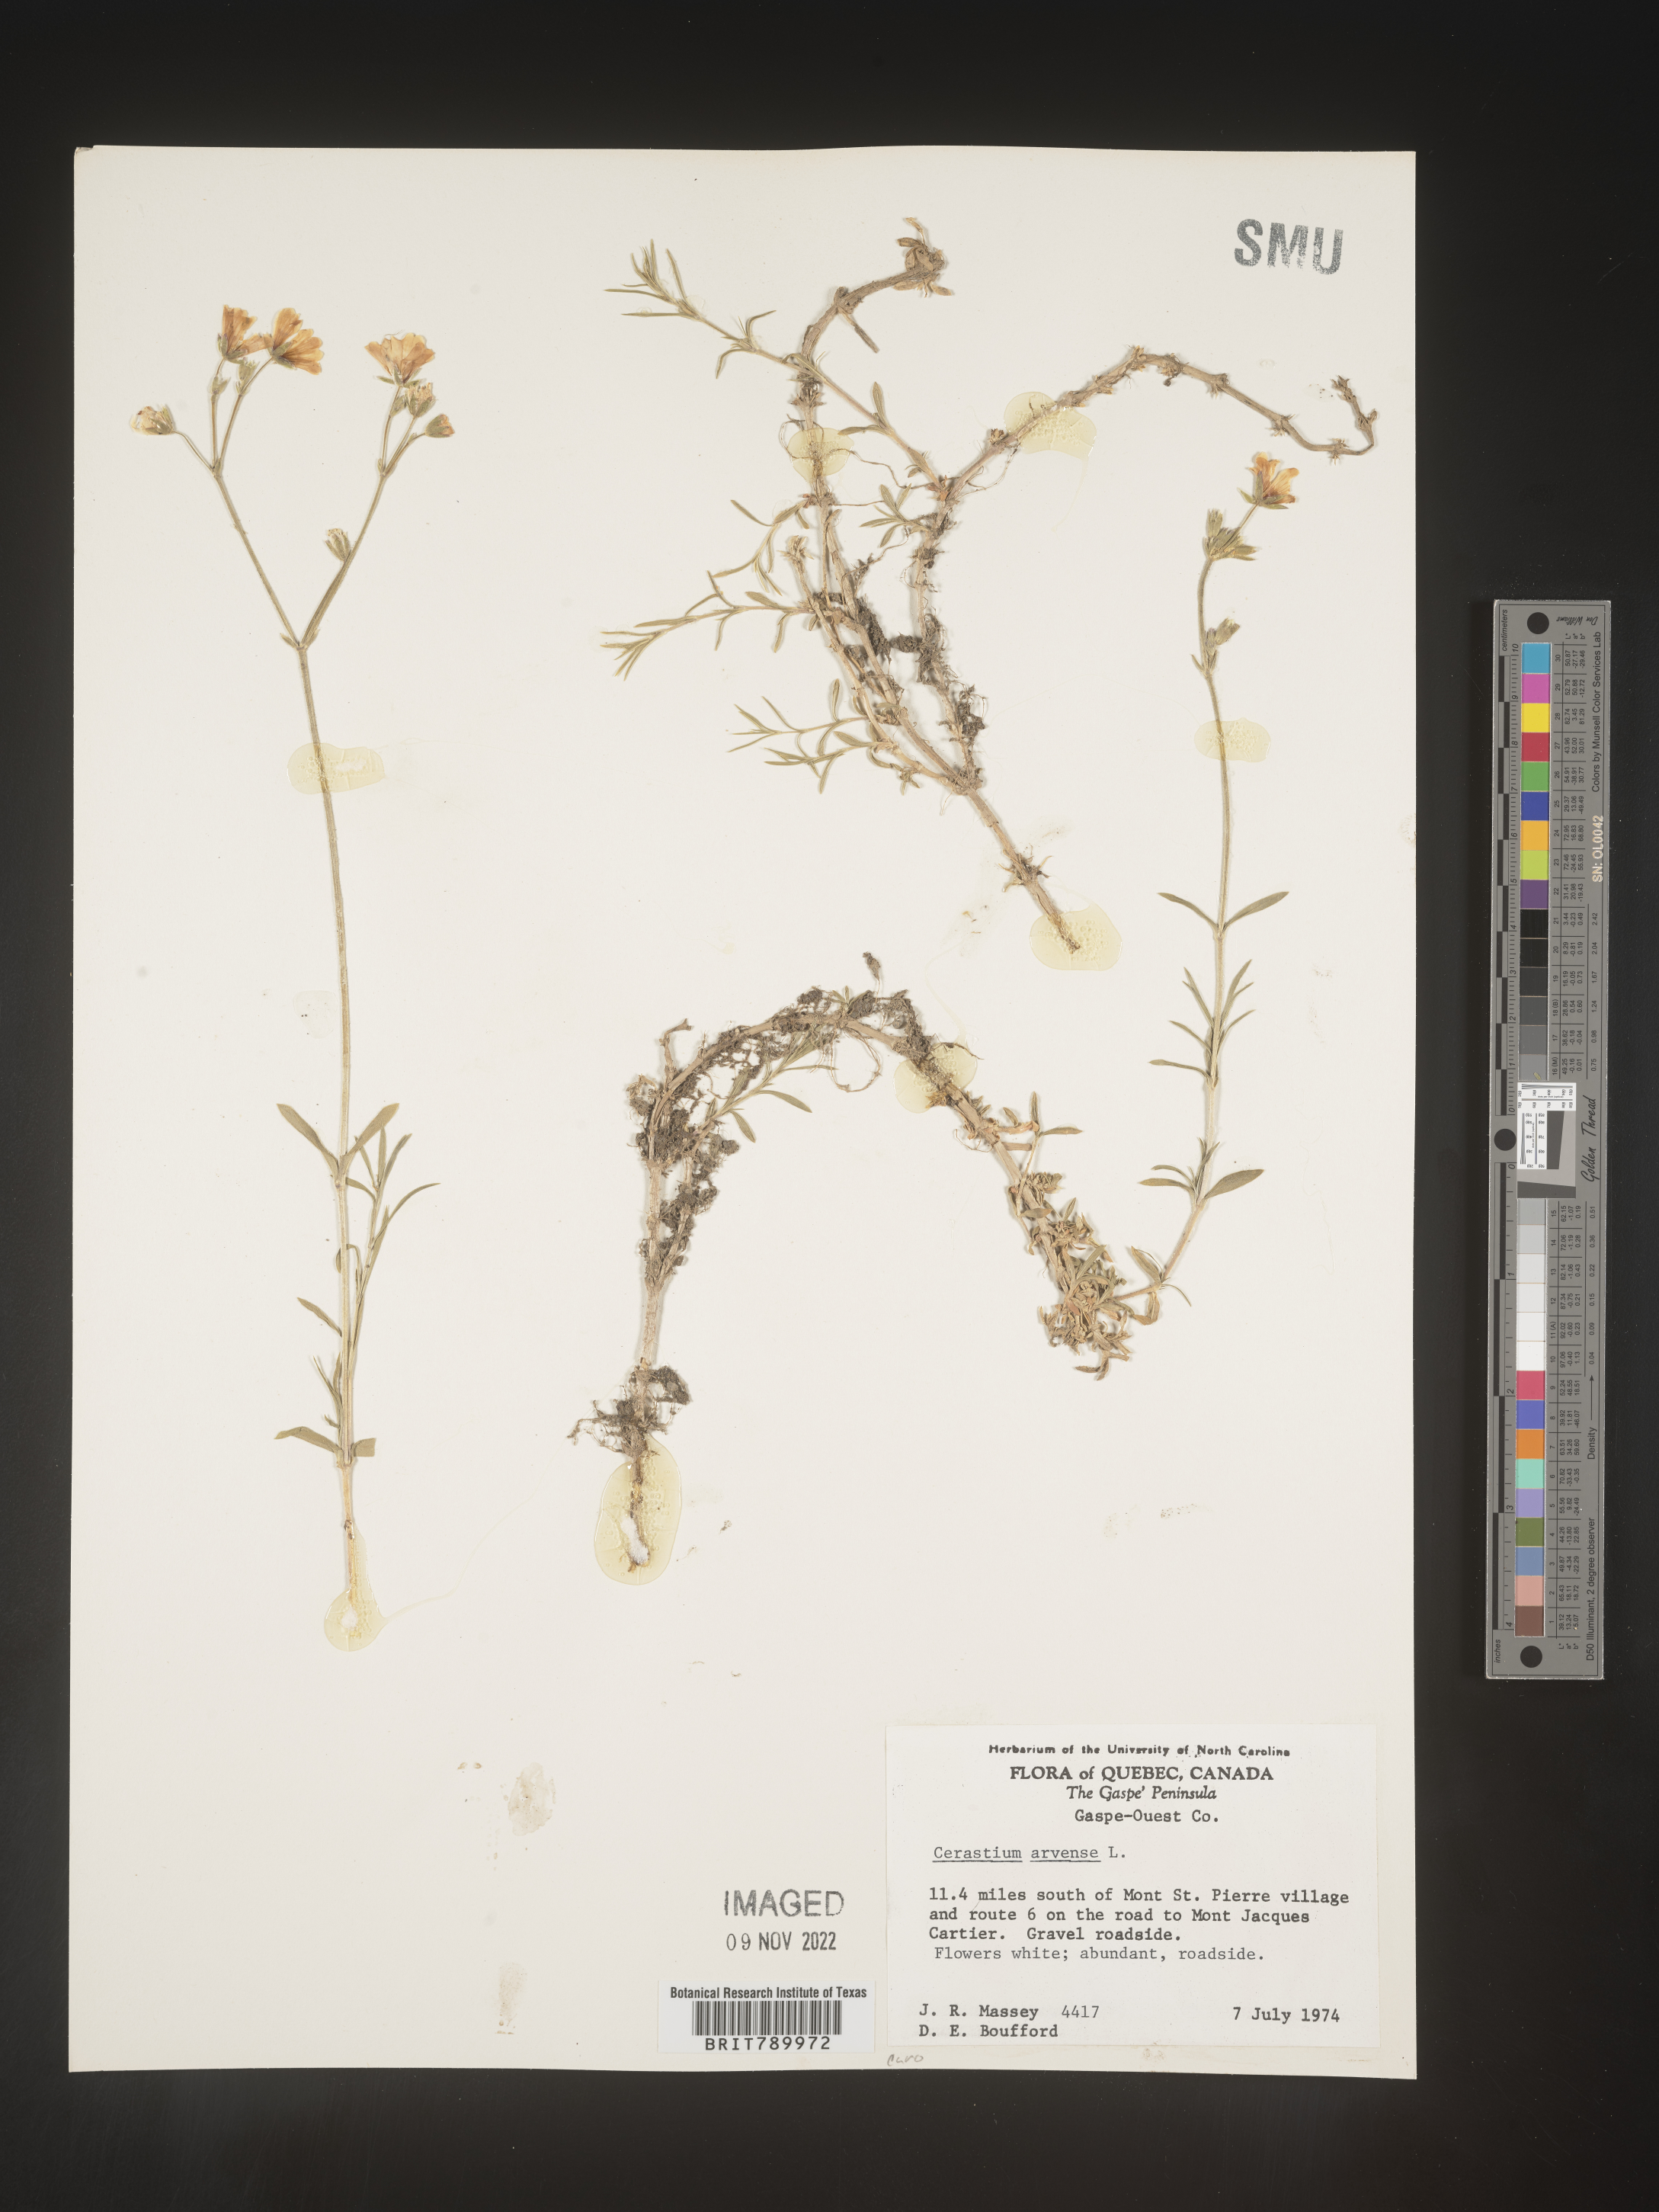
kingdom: Plantae
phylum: Tracheophyta
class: Magnoliopsida
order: Caryophyllales
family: Caryophyllaceae
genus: Cerastium
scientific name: Cerastium arvense
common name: Field mouse-ear
